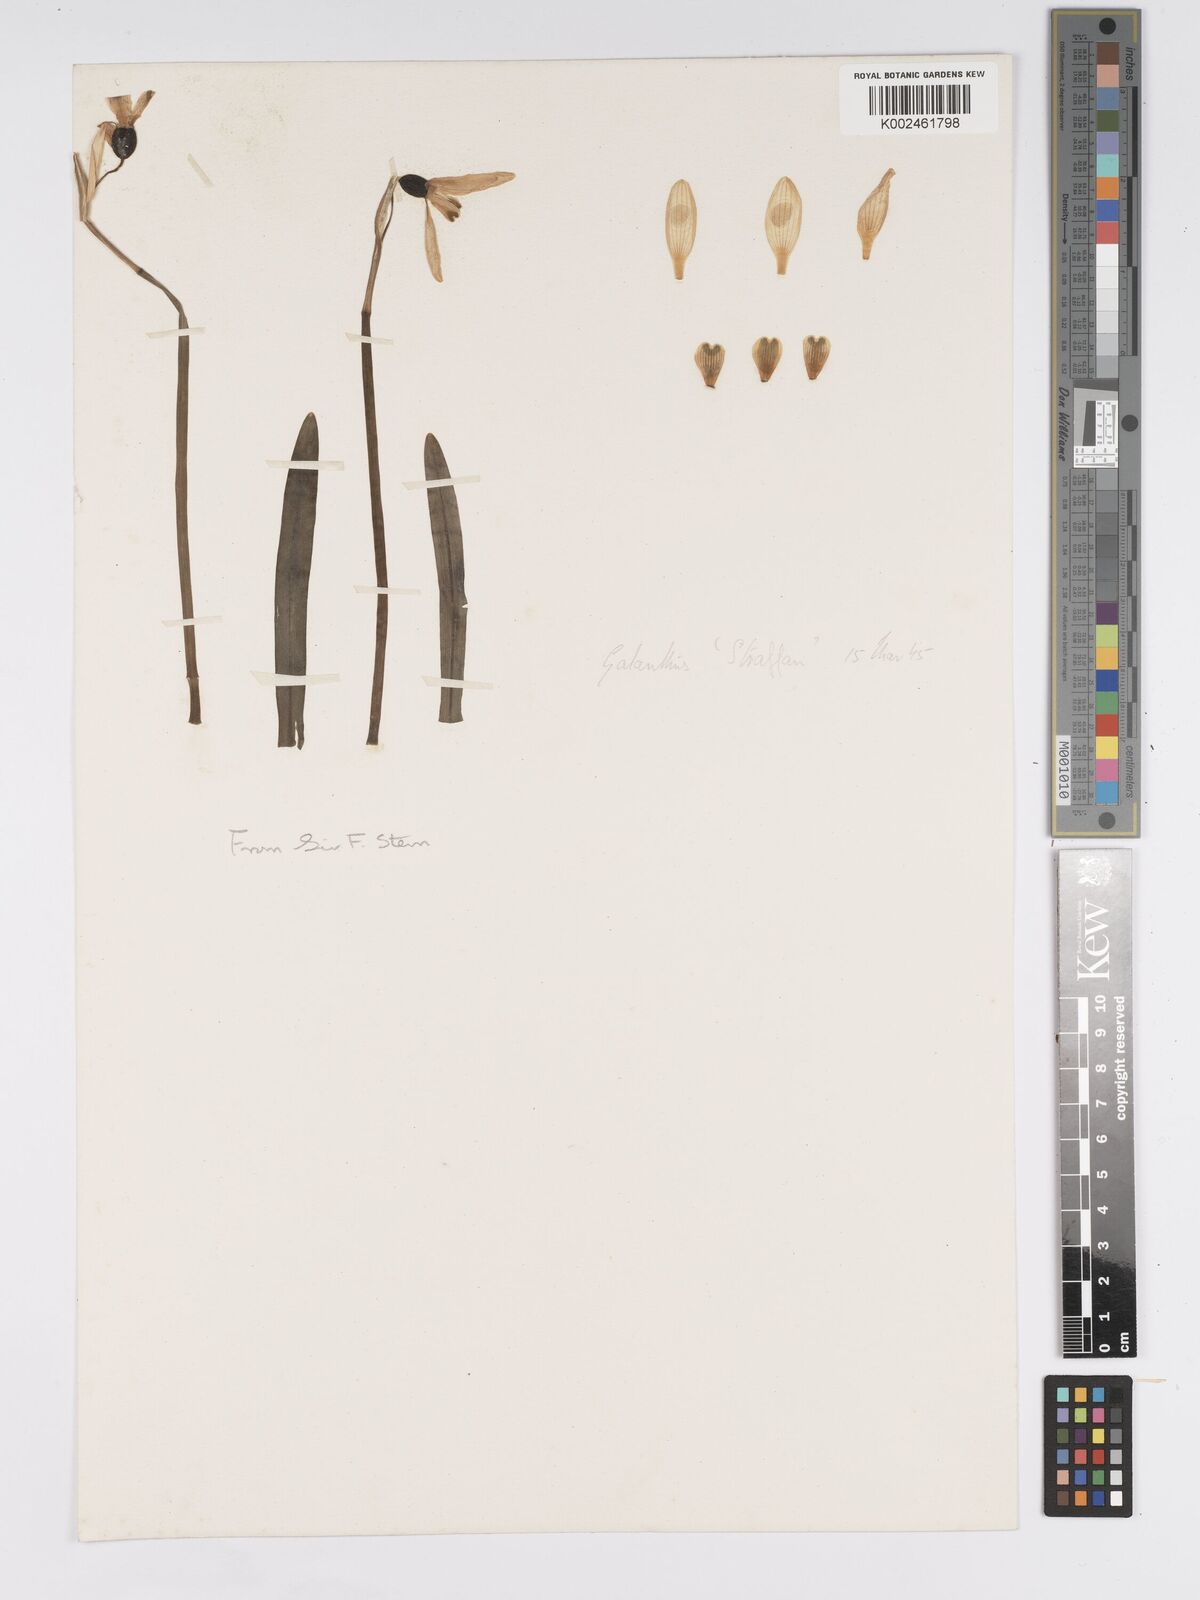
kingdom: Plantae
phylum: Tracheophyta
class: Liliopsida
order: Asparagales
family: Amaryllidaceae
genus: Galanthus
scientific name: Galanthus
